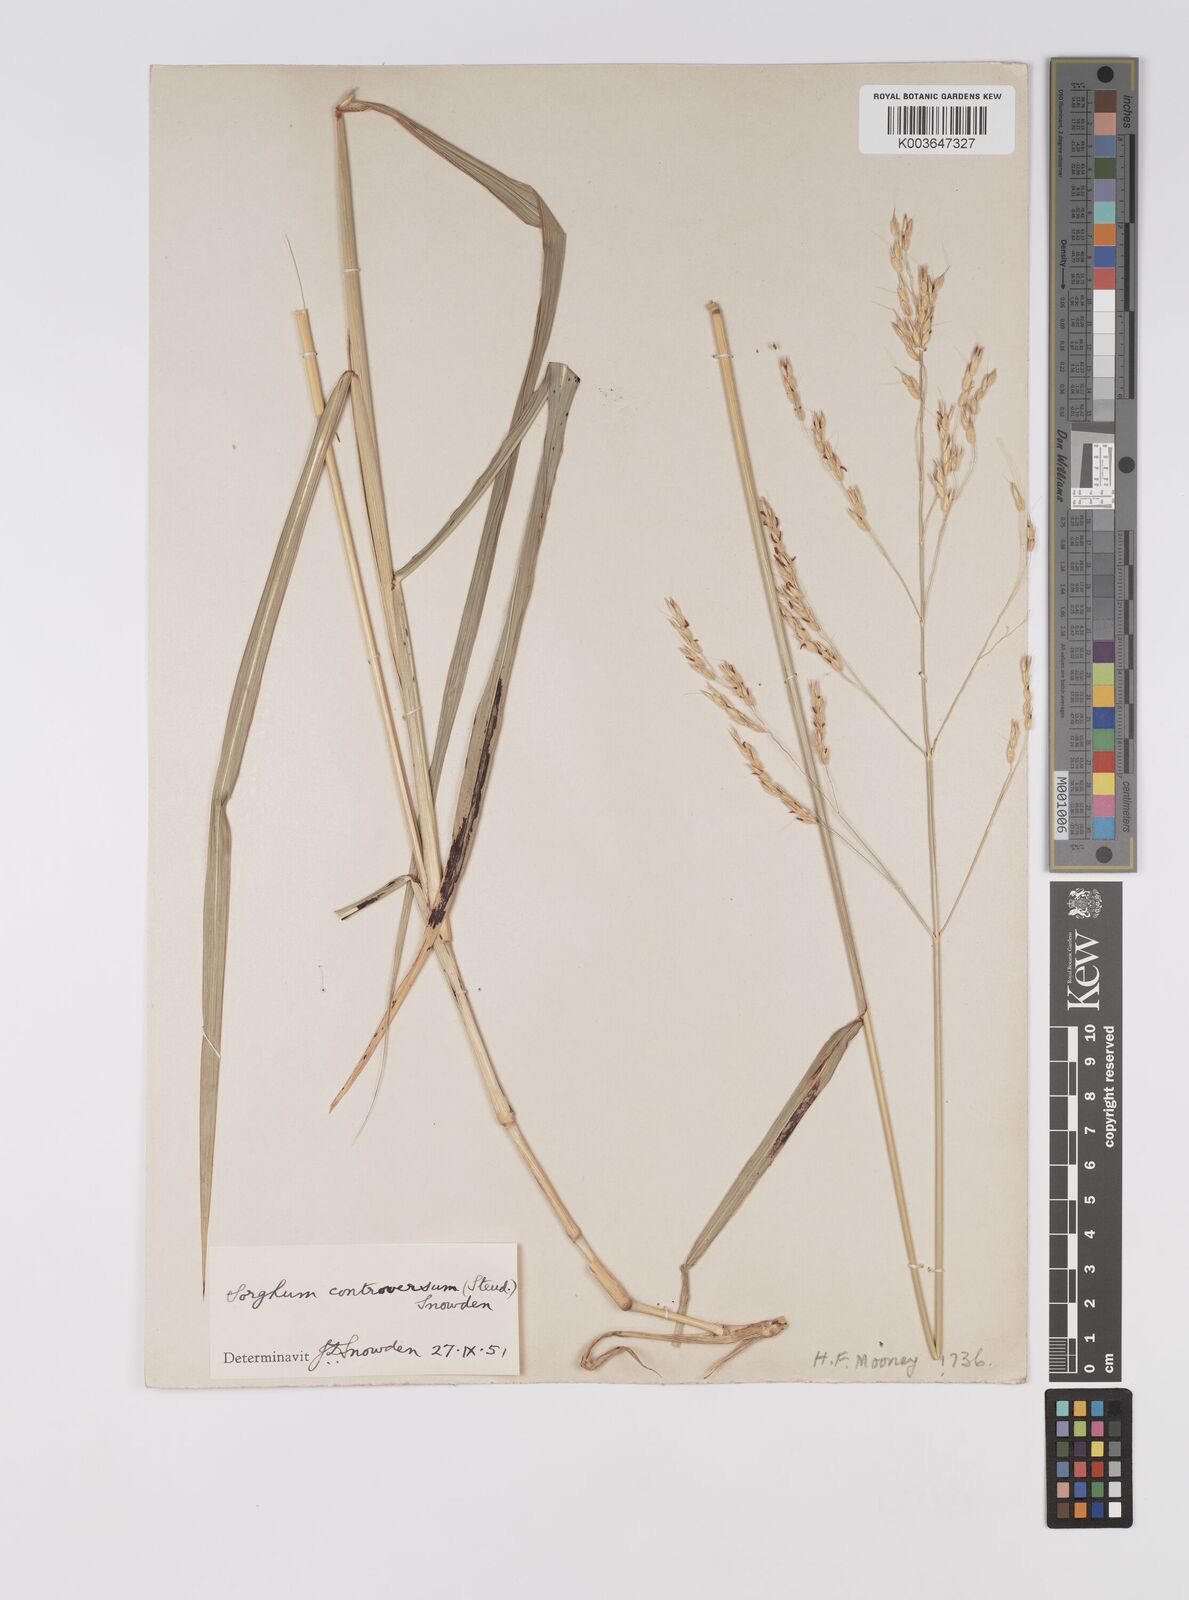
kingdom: Plantae
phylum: Tracheophyta
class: Liliopsida
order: Poales
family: Poaceae
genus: Sorghum
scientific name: Sorghum controversum
